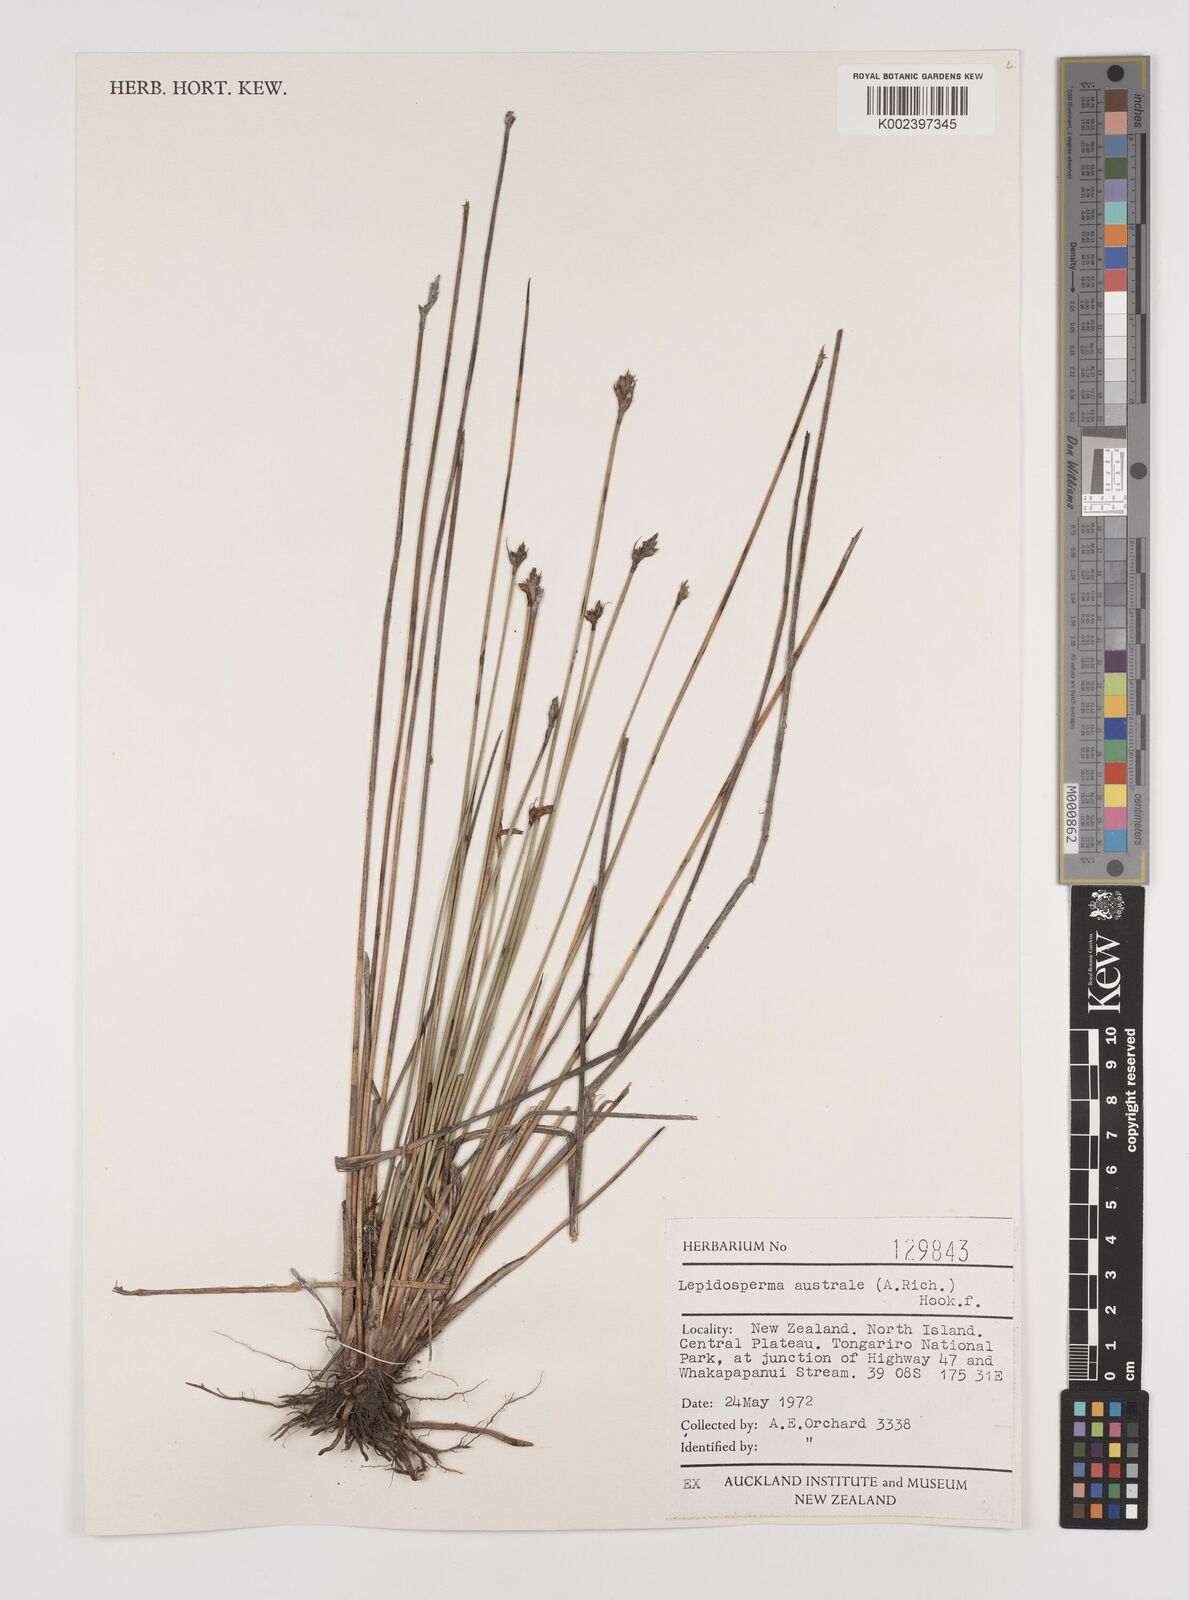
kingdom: Plantae
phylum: Tracheophyta
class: Liliopsida
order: Poales
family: Cyperaceae
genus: Lepidosperma
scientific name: Lepidosperma australe
